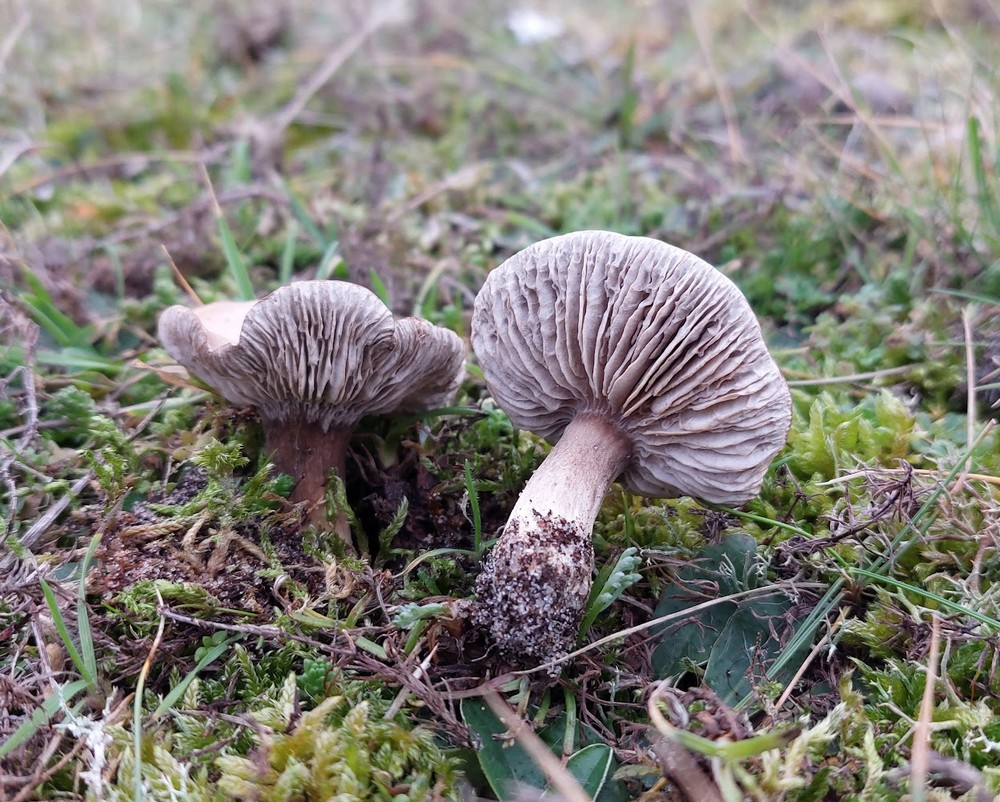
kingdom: Fungi
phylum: Basidiomycota
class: Agaricomycetes
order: Agaricales
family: Tricholomataceae
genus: Melanoleuca
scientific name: Melanoleuca ammophila
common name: gråbladet munkehat
